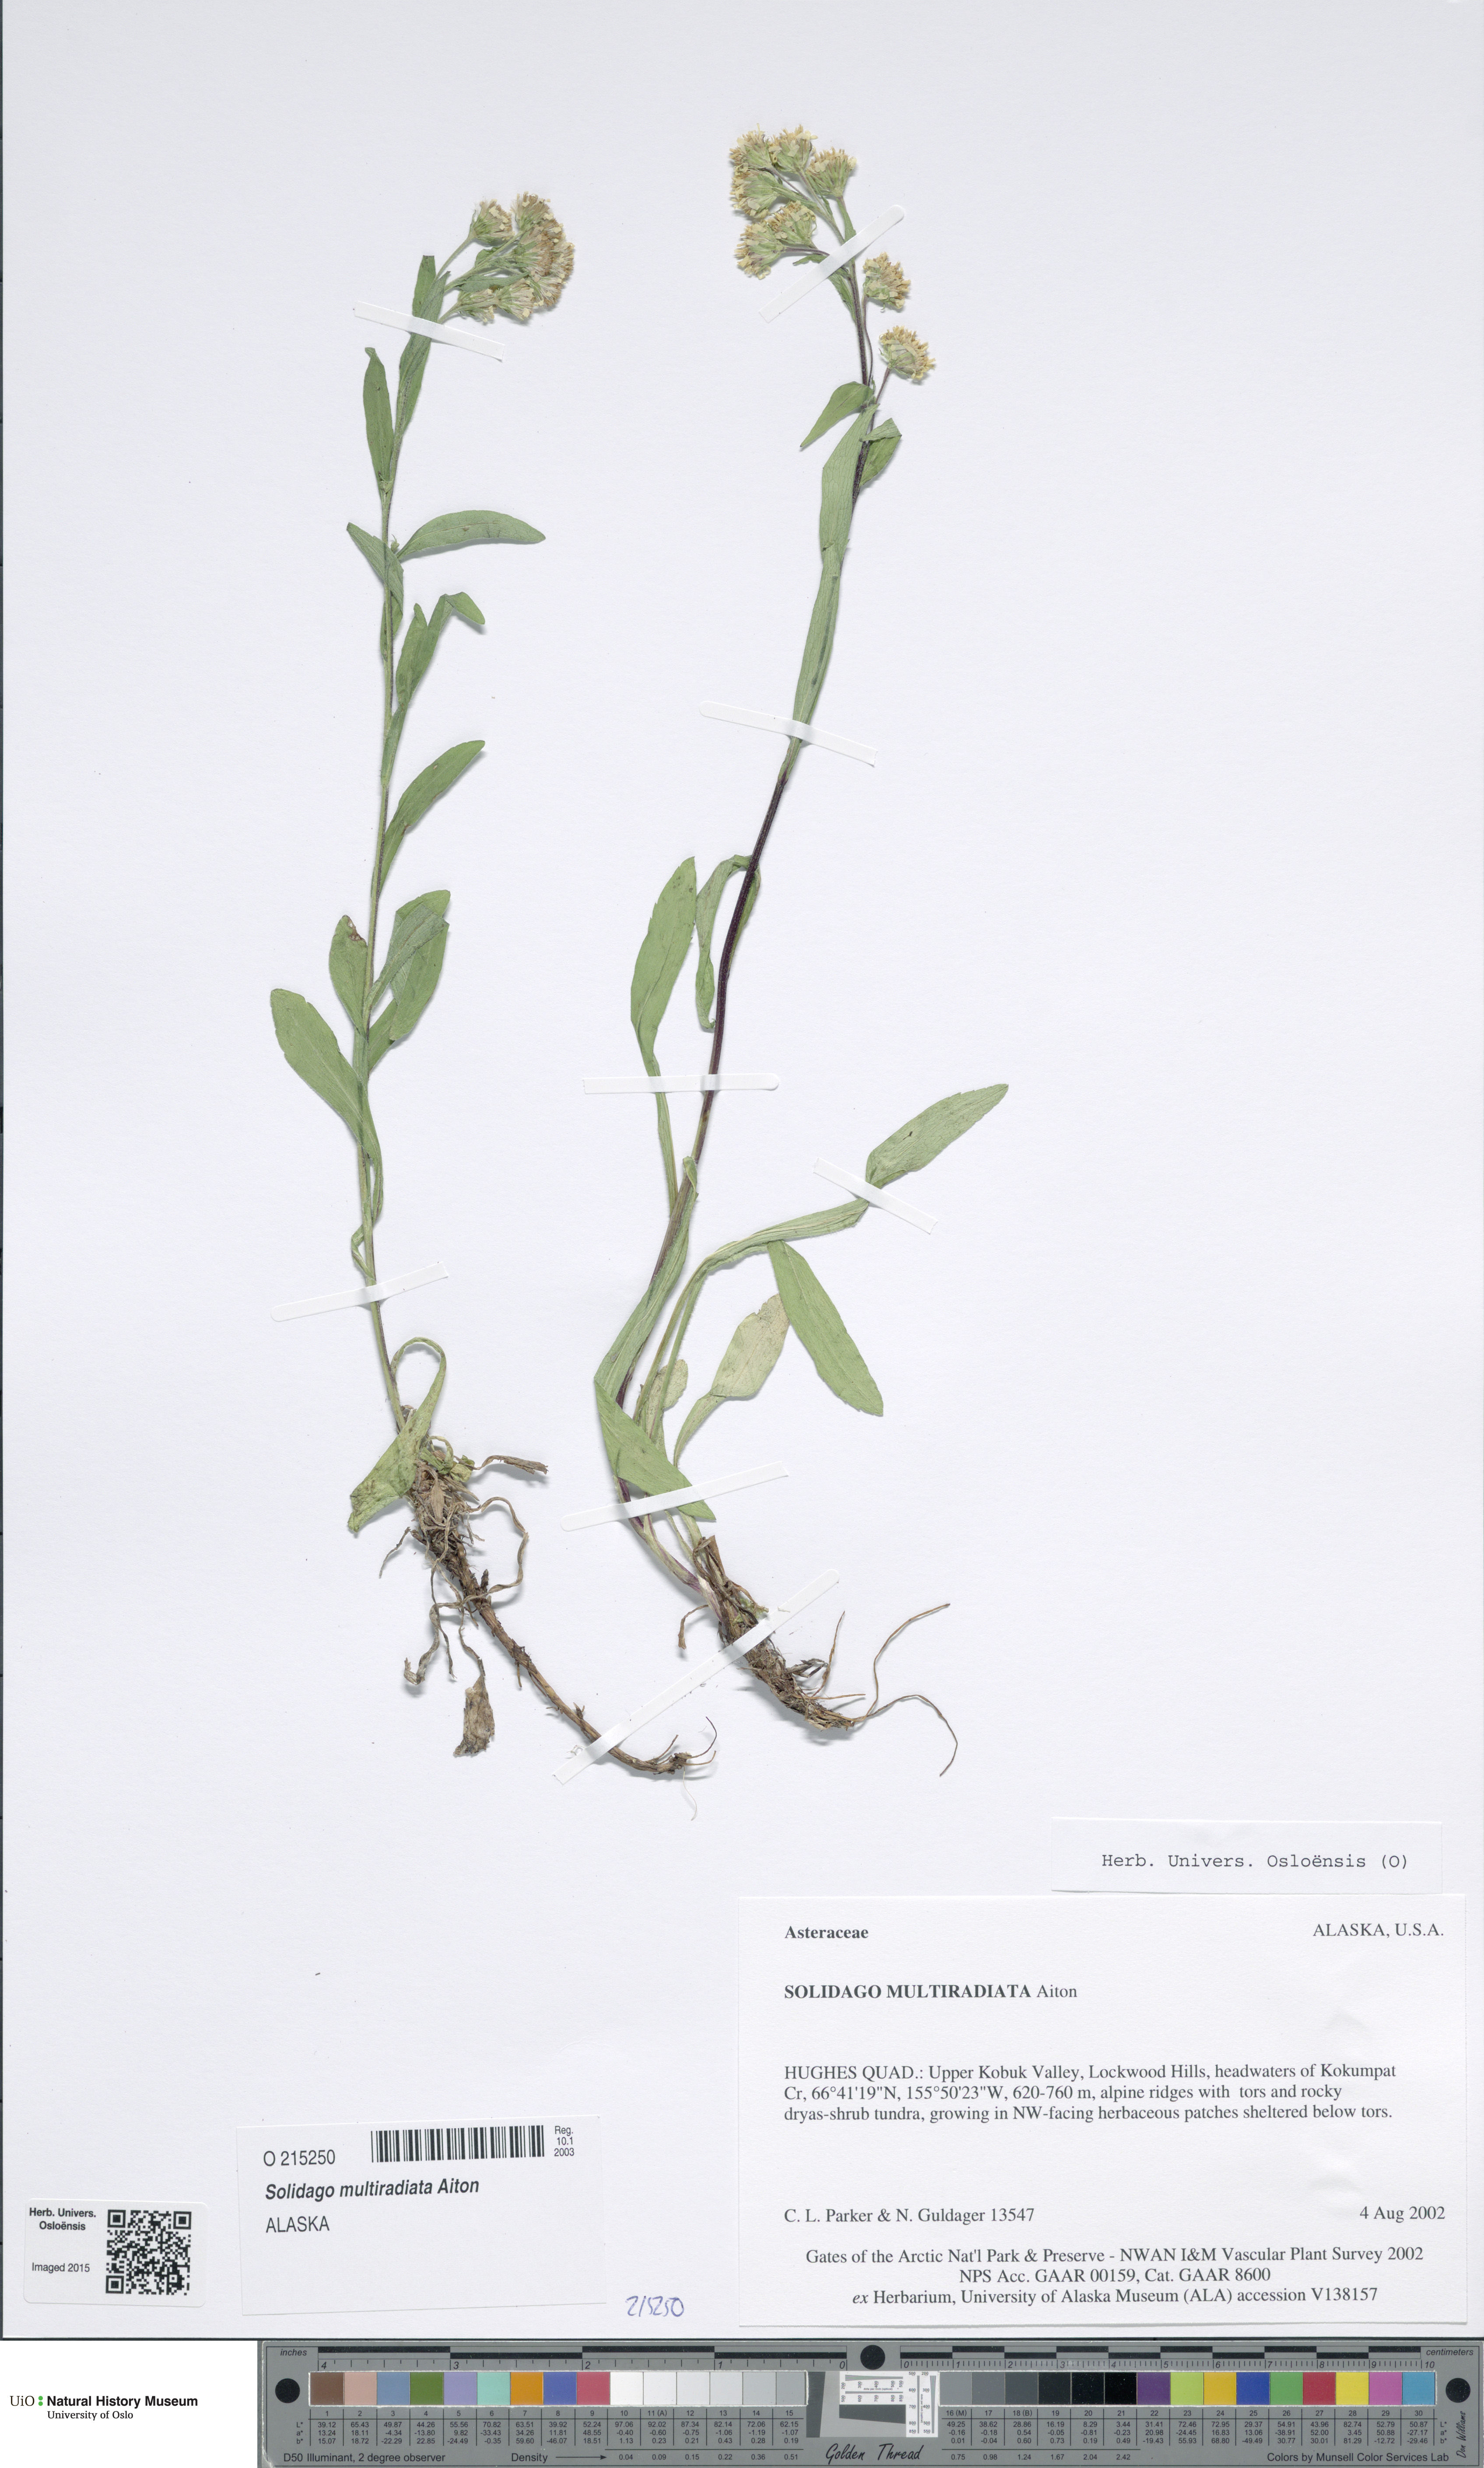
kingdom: Plantae
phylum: Tracheophyta
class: Magnoliopsida
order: Asterales
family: Asteraceae
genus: Solidago
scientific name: Solidago multiradiata
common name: Northern goldenrod
